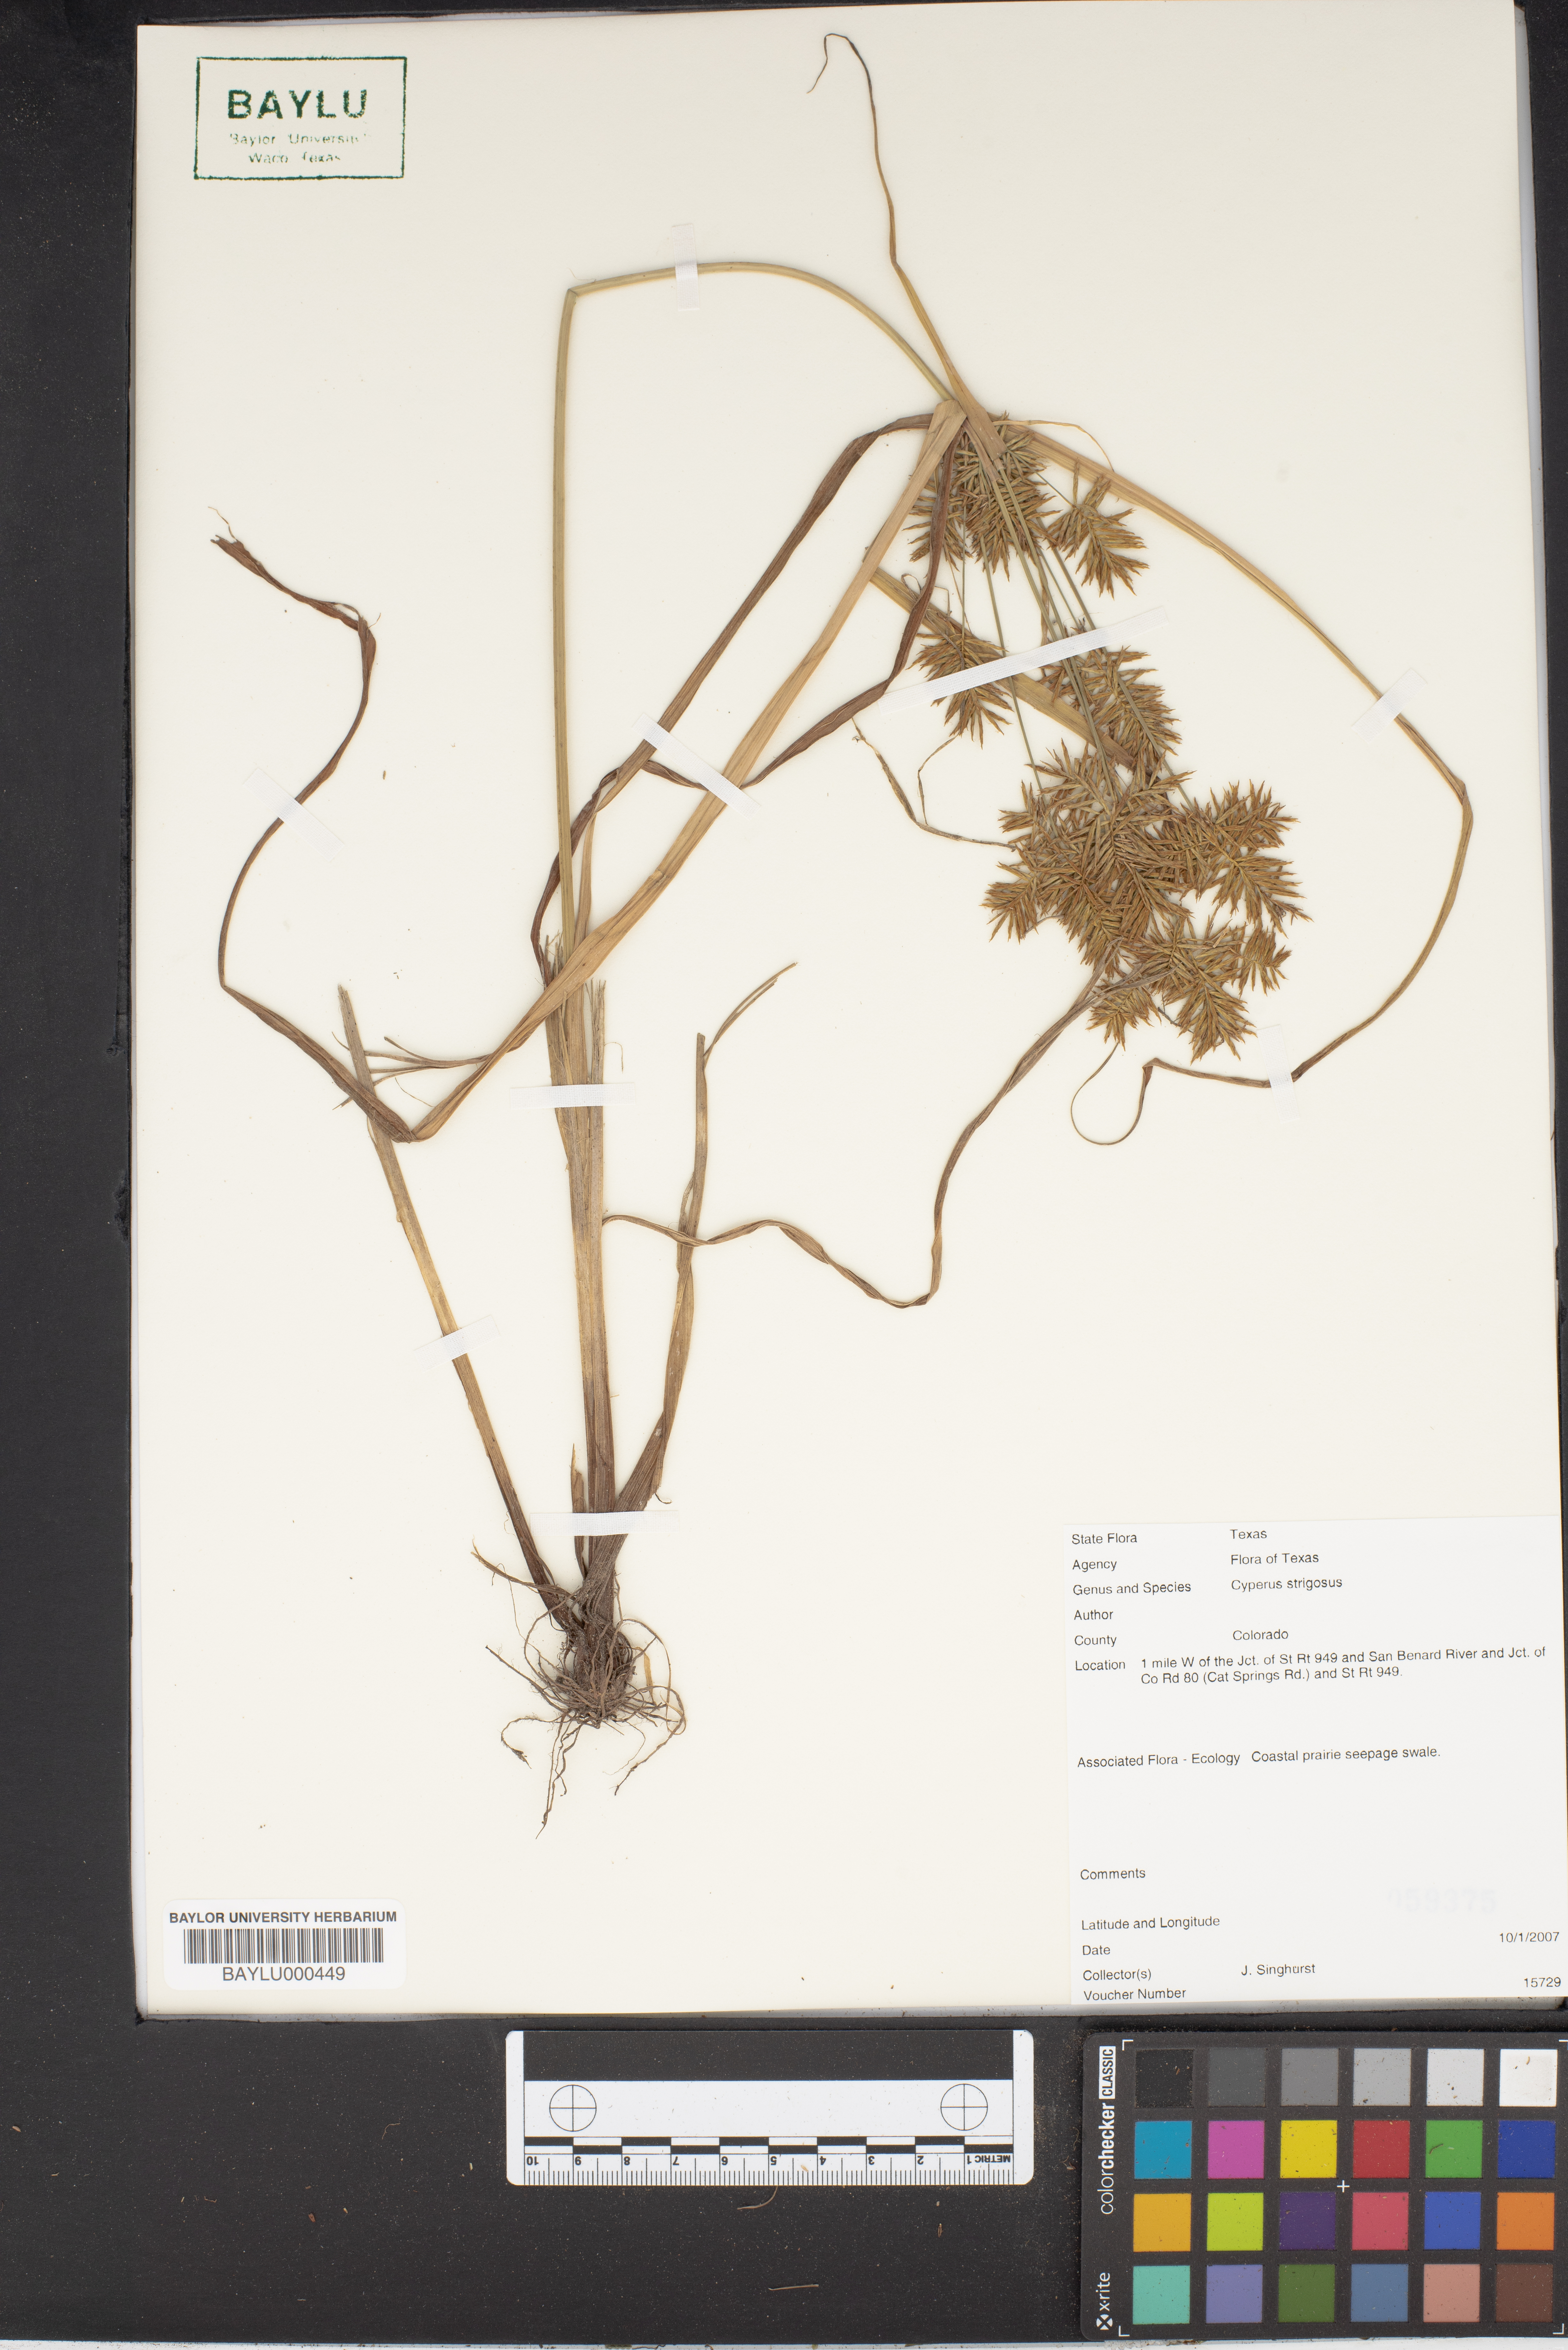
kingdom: Plantae
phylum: Tracheophyta
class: Liliopsida
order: Poales
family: Cyperaceae
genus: Cyperus
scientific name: Cyperus strigosus
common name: False nutsedge
